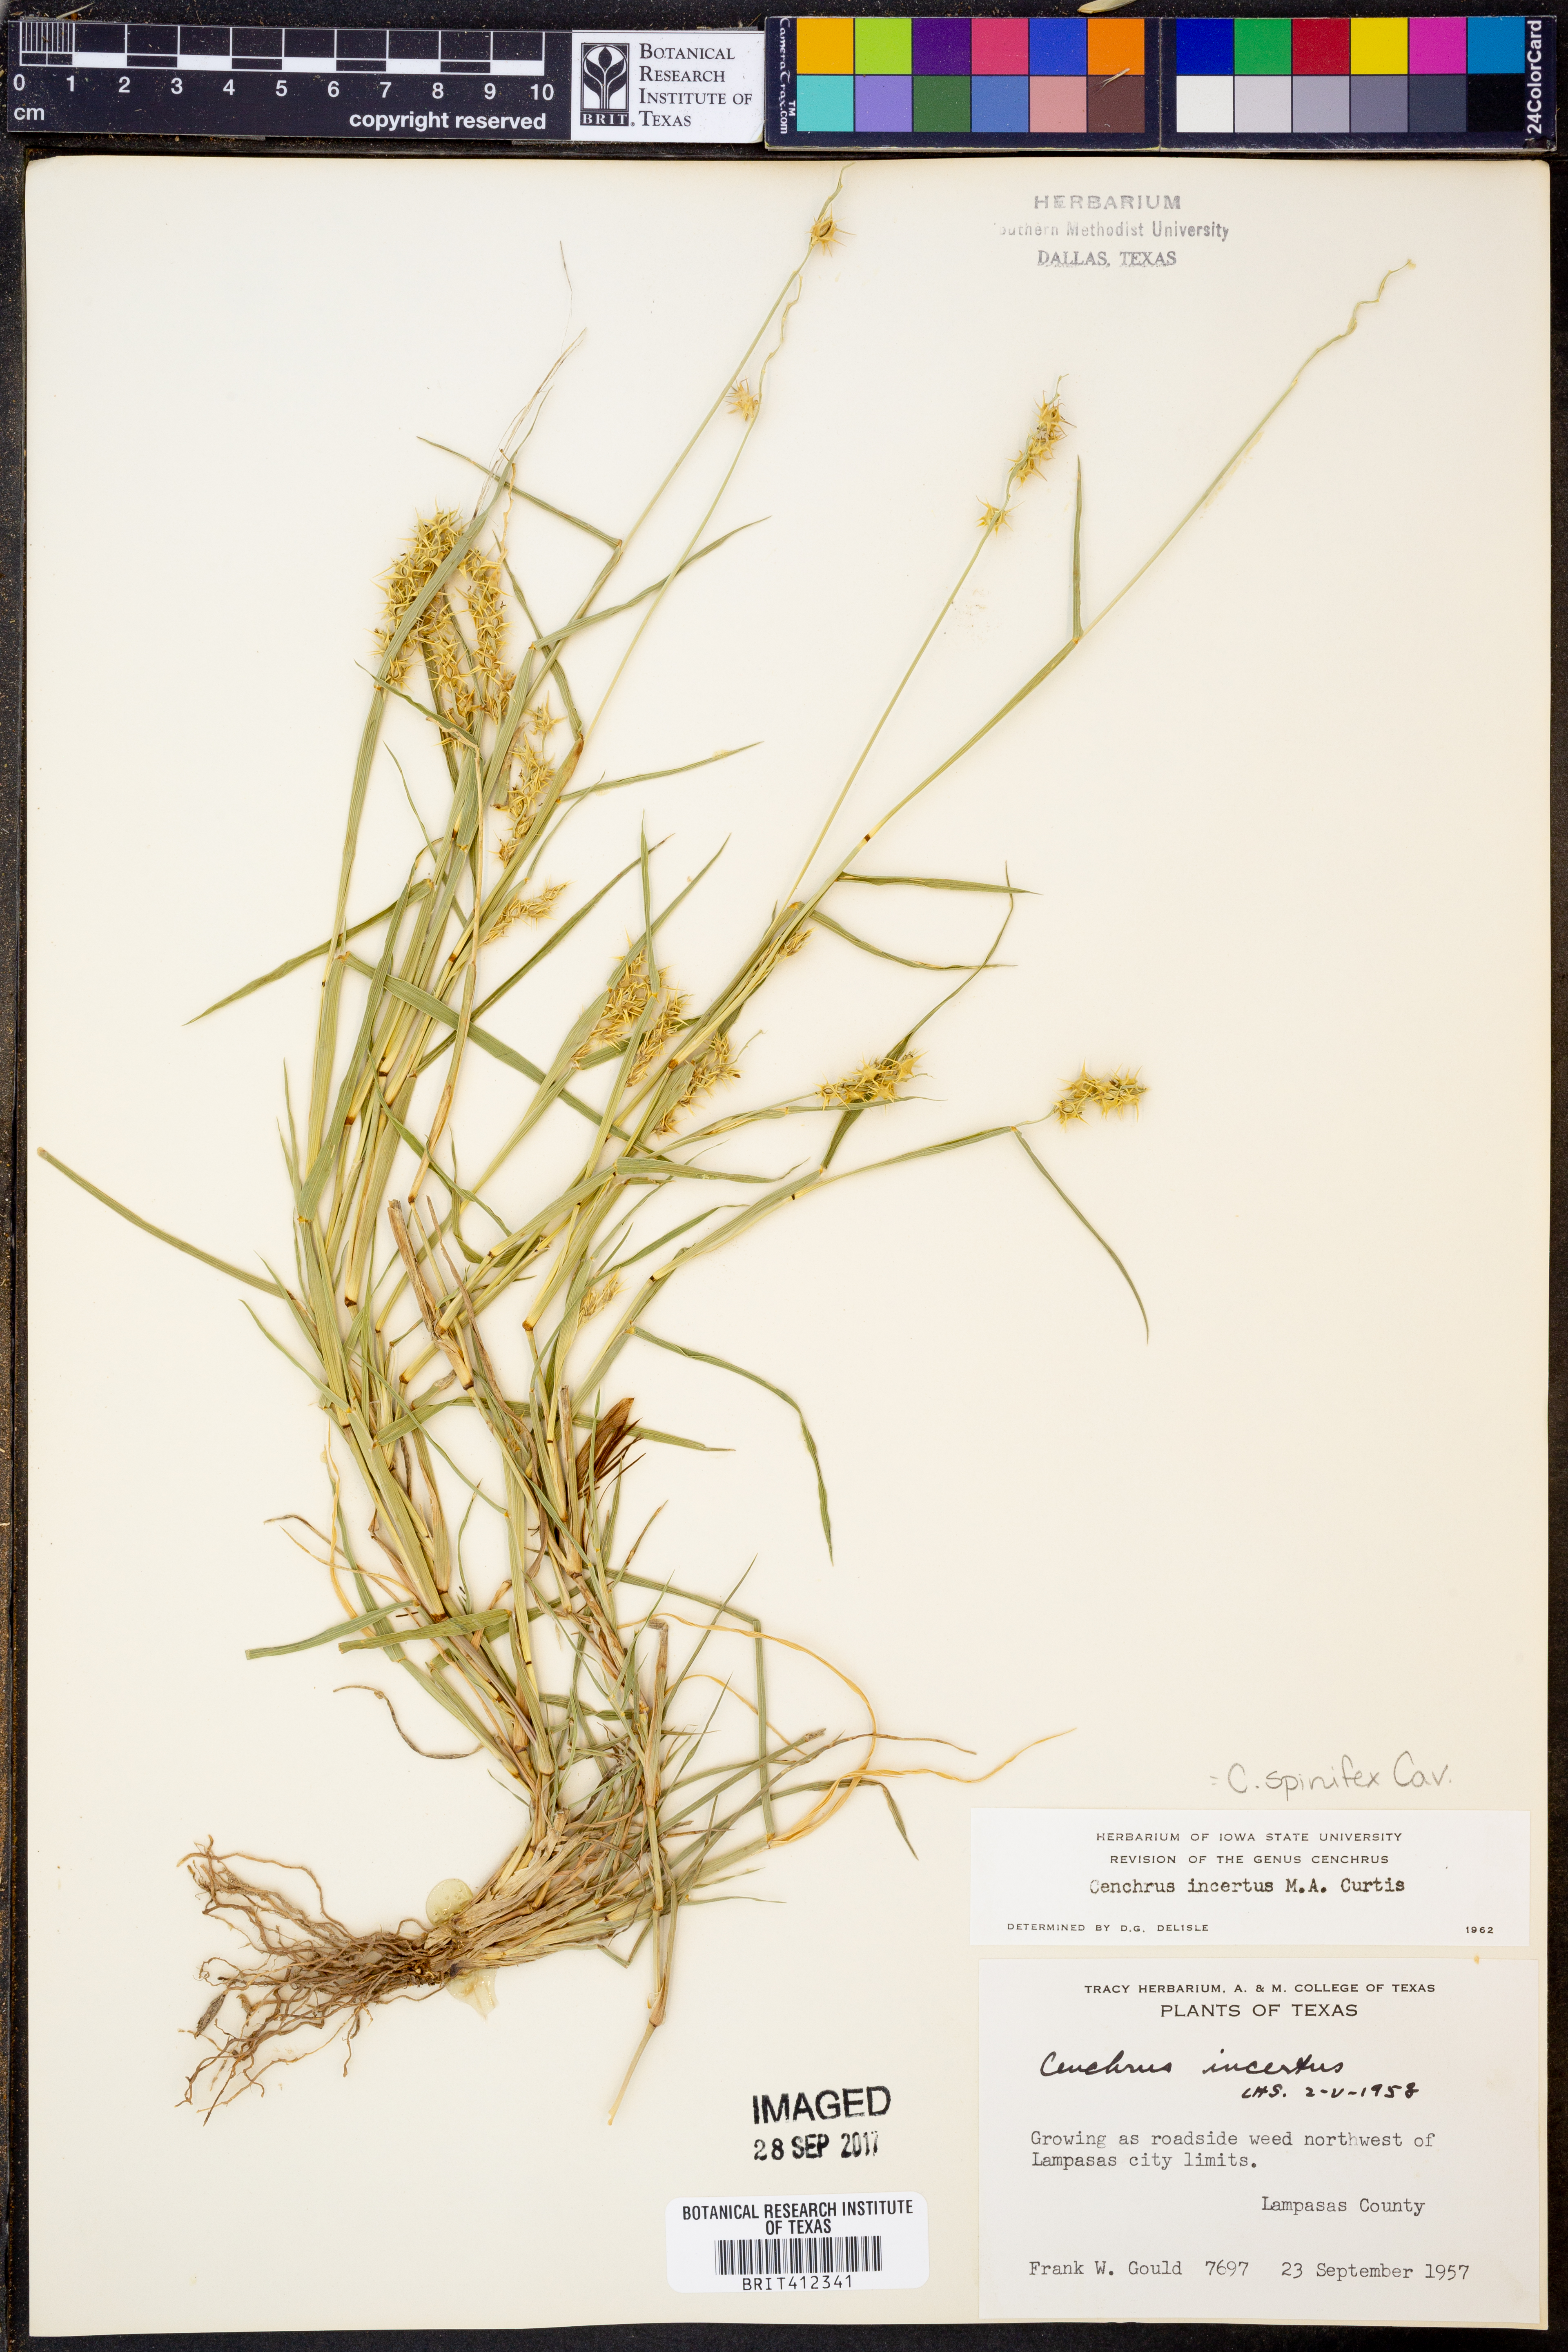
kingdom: Plantae
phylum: Tracheophyta
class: Liliopsida
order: Poales
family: Poaceae
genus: Cenchrus
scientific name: Cenchrus spinifex
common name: Coast sandbur
